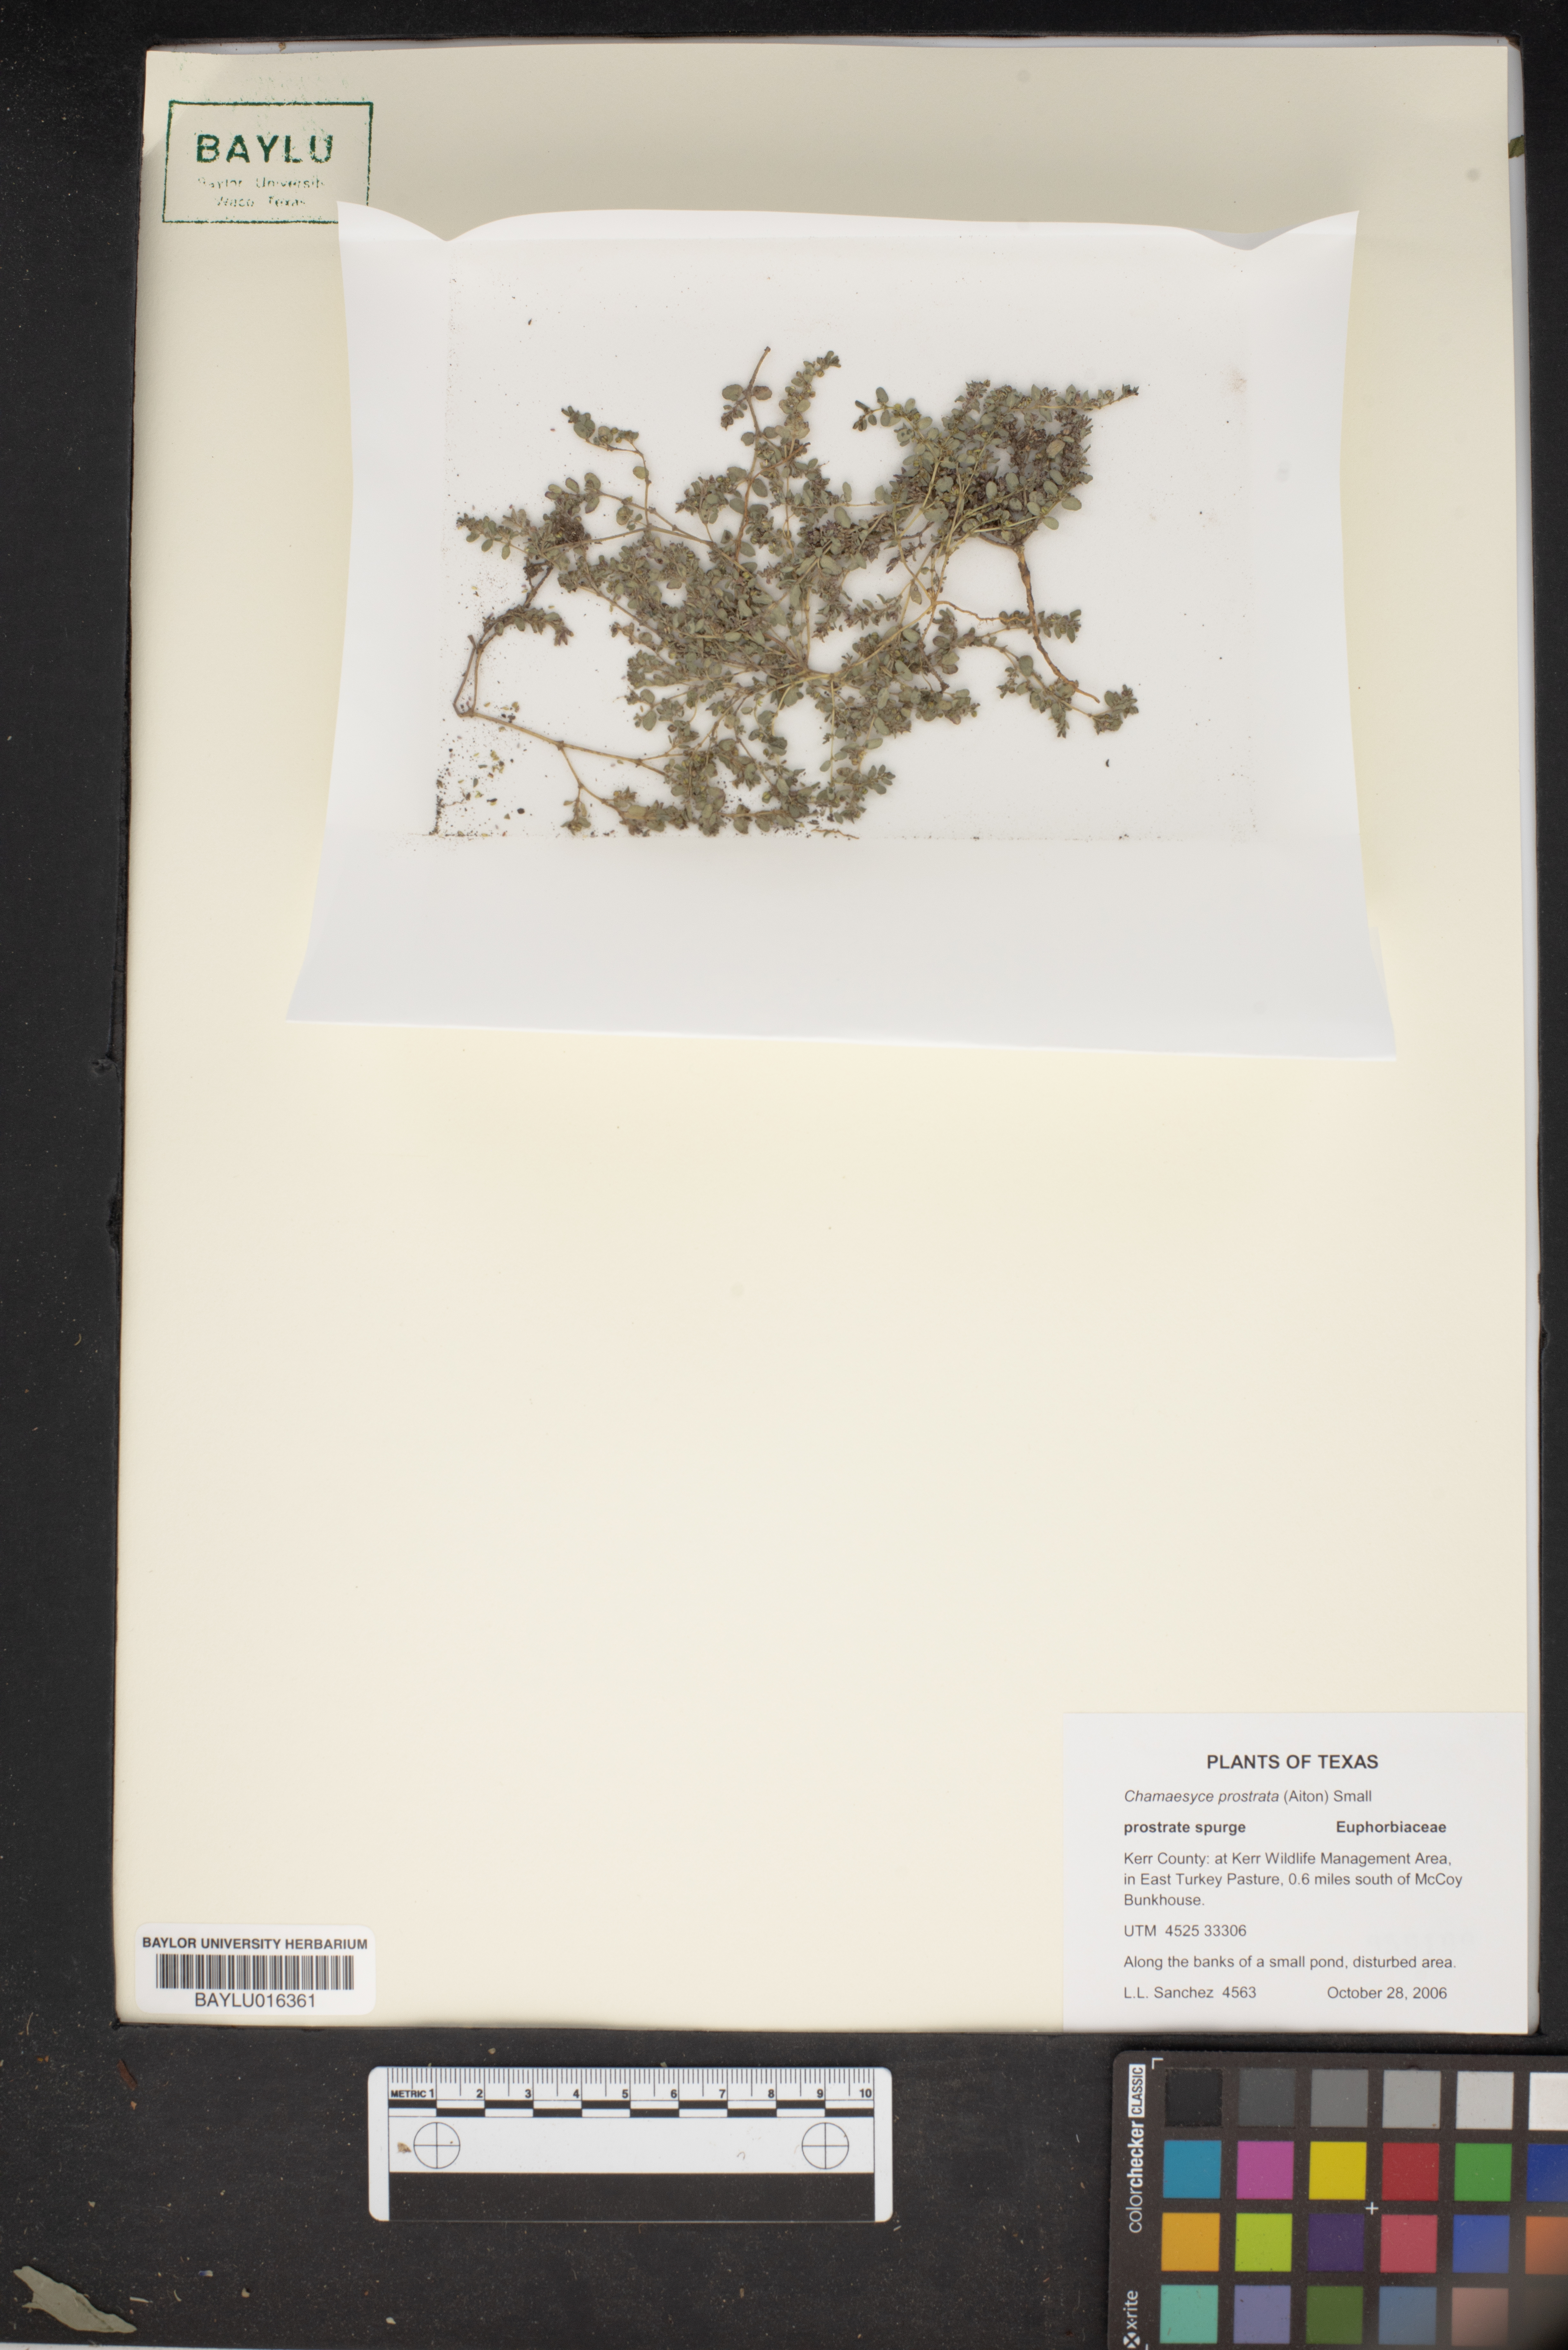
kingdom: Plantae
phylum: Tracheophyta
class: Magnoliopsida
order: Malpighiales
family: Euphorbiaceae
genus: Euphorbia
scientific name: Euphorbia prostrata
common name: Prostrate sandmat
